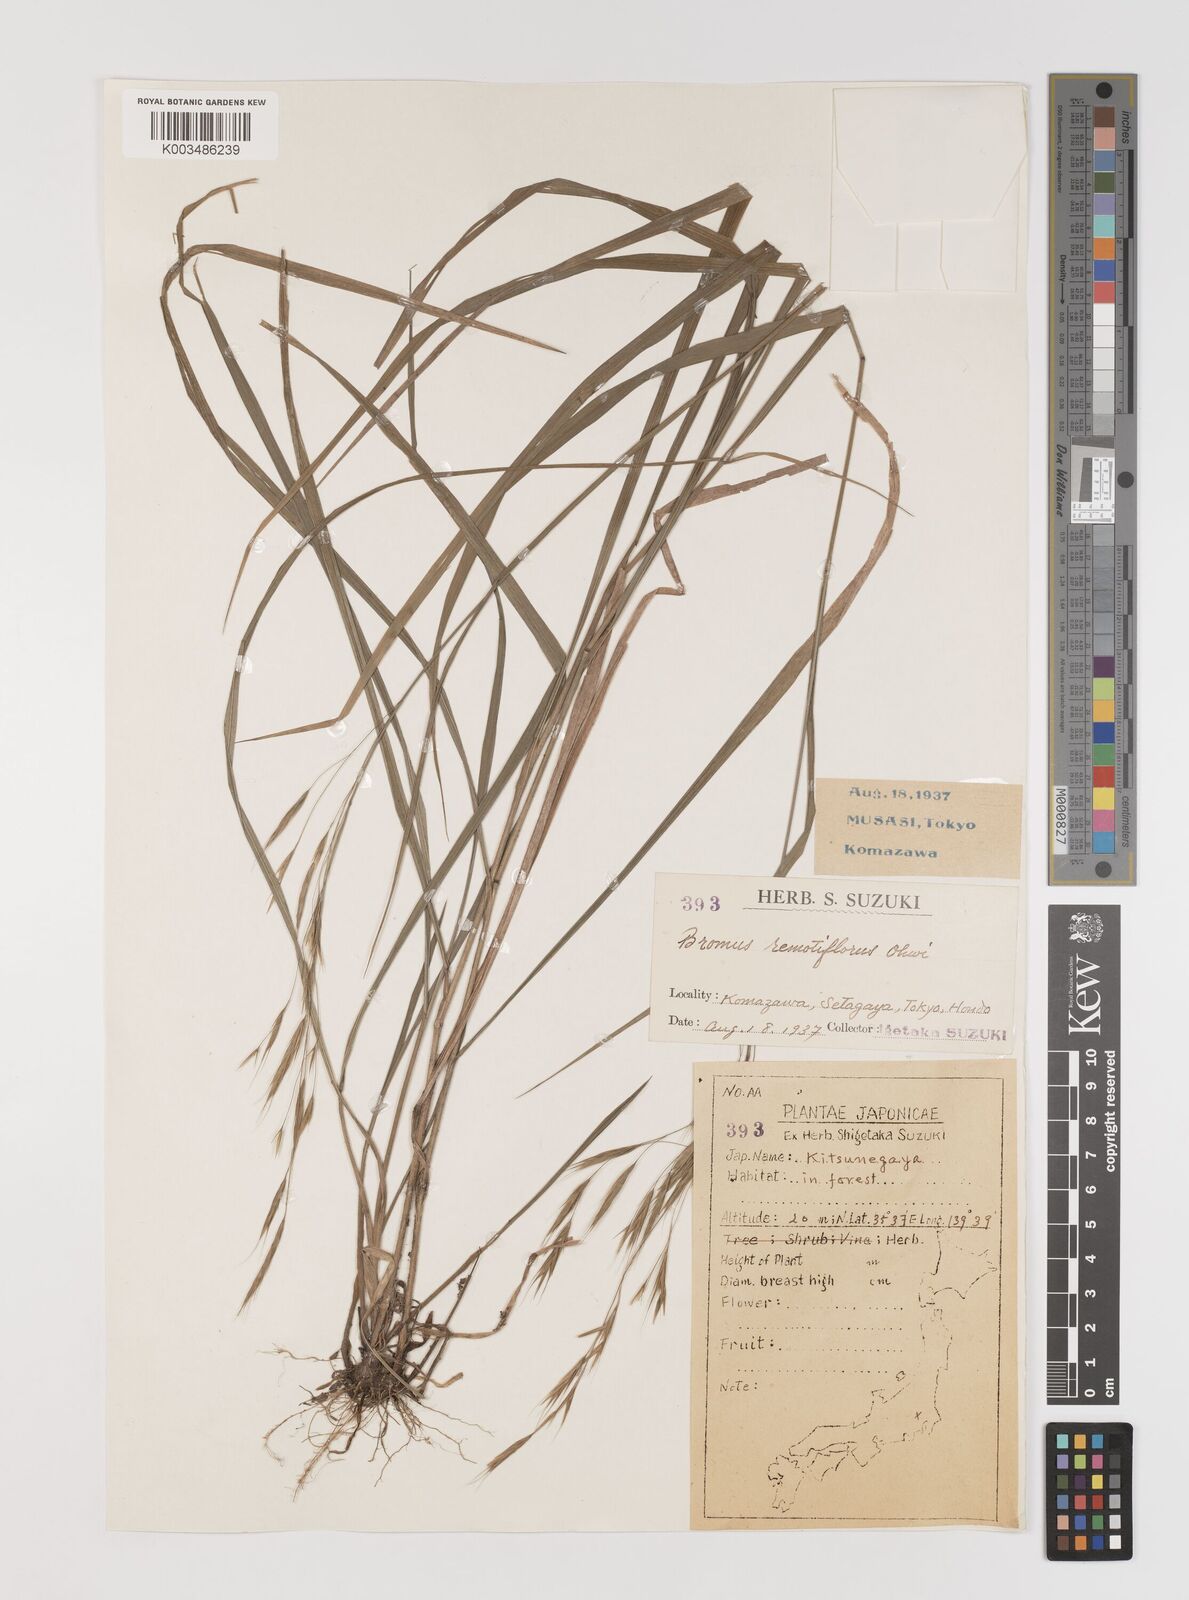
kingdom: Plantae
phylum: Tracheophyta
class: Liliopsida
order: Poales
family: Poaceae
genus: Bromus
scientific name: Bromus remotiflorus
